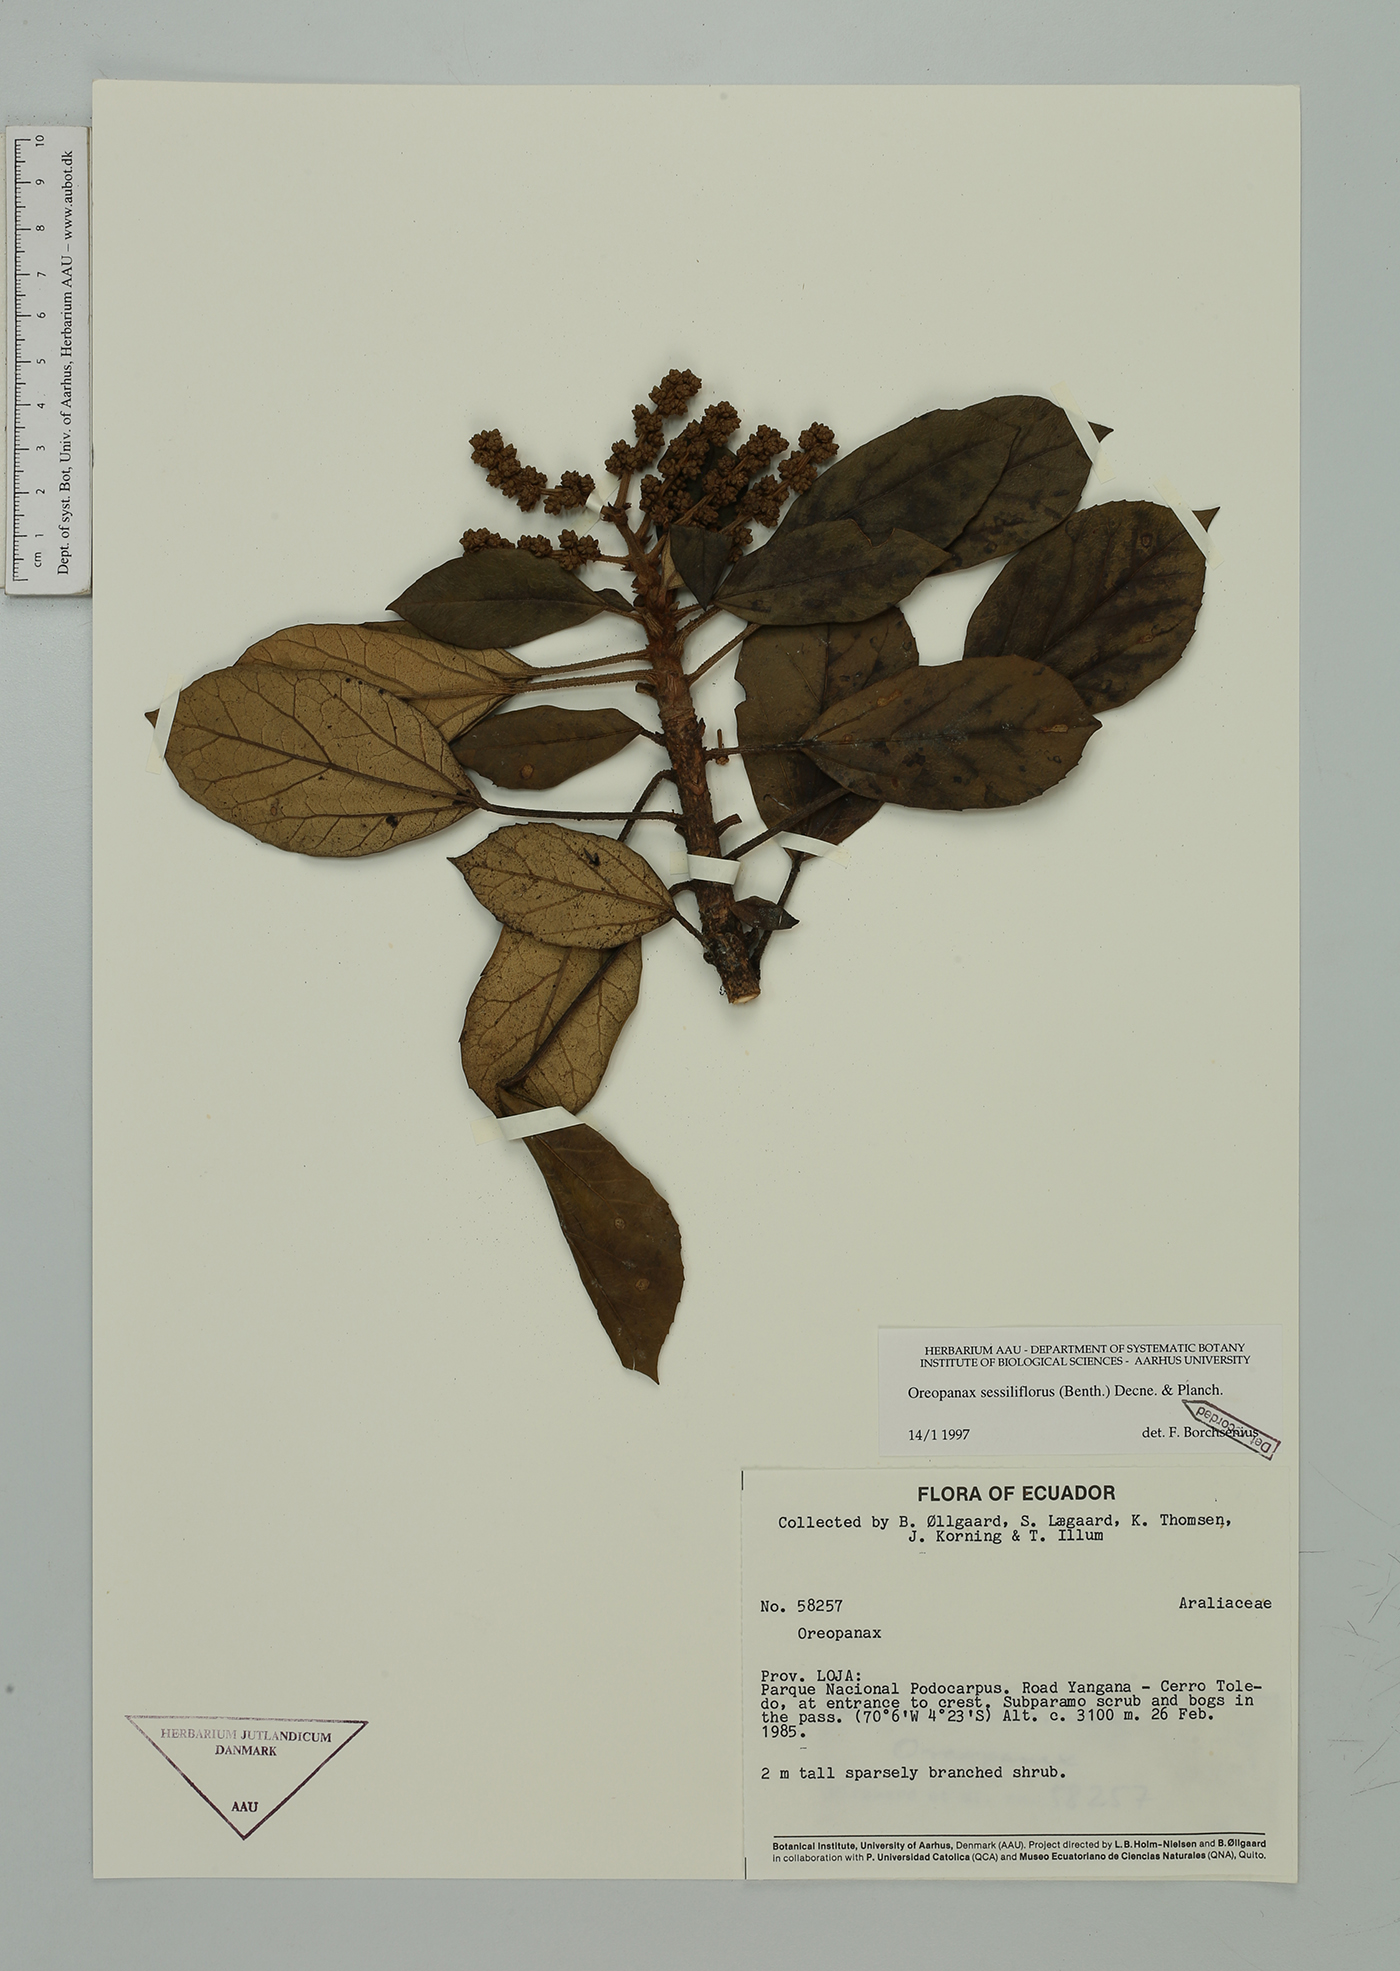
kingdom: Plantae
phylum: Tracheophyta
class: Magnoliopsida
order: Apiales
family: Araliaceae
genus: Oreopanax
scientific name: Oreopanax sessiliflorus
